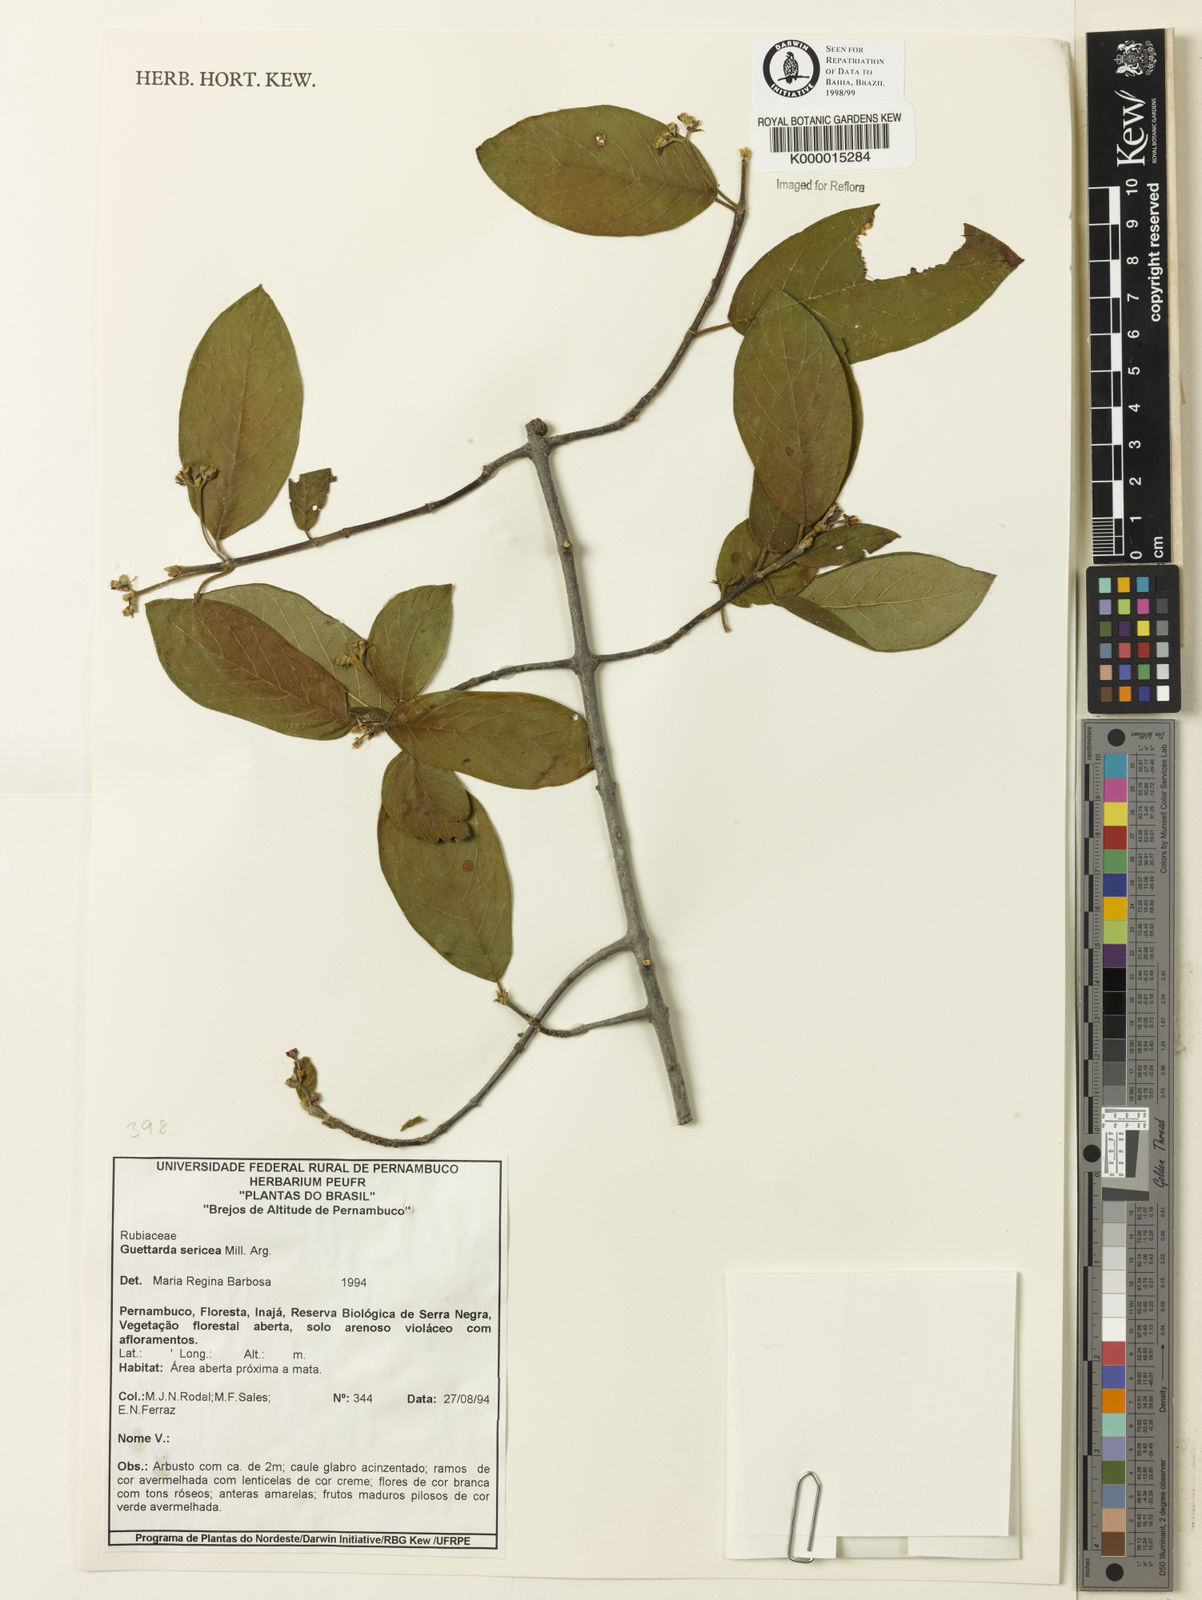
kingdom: Plantae
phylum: Tracheophyta
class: Magnoliopsida
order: Gentianales
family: Rubiaceae
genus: Guettarda
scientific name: Guettarda sericea
